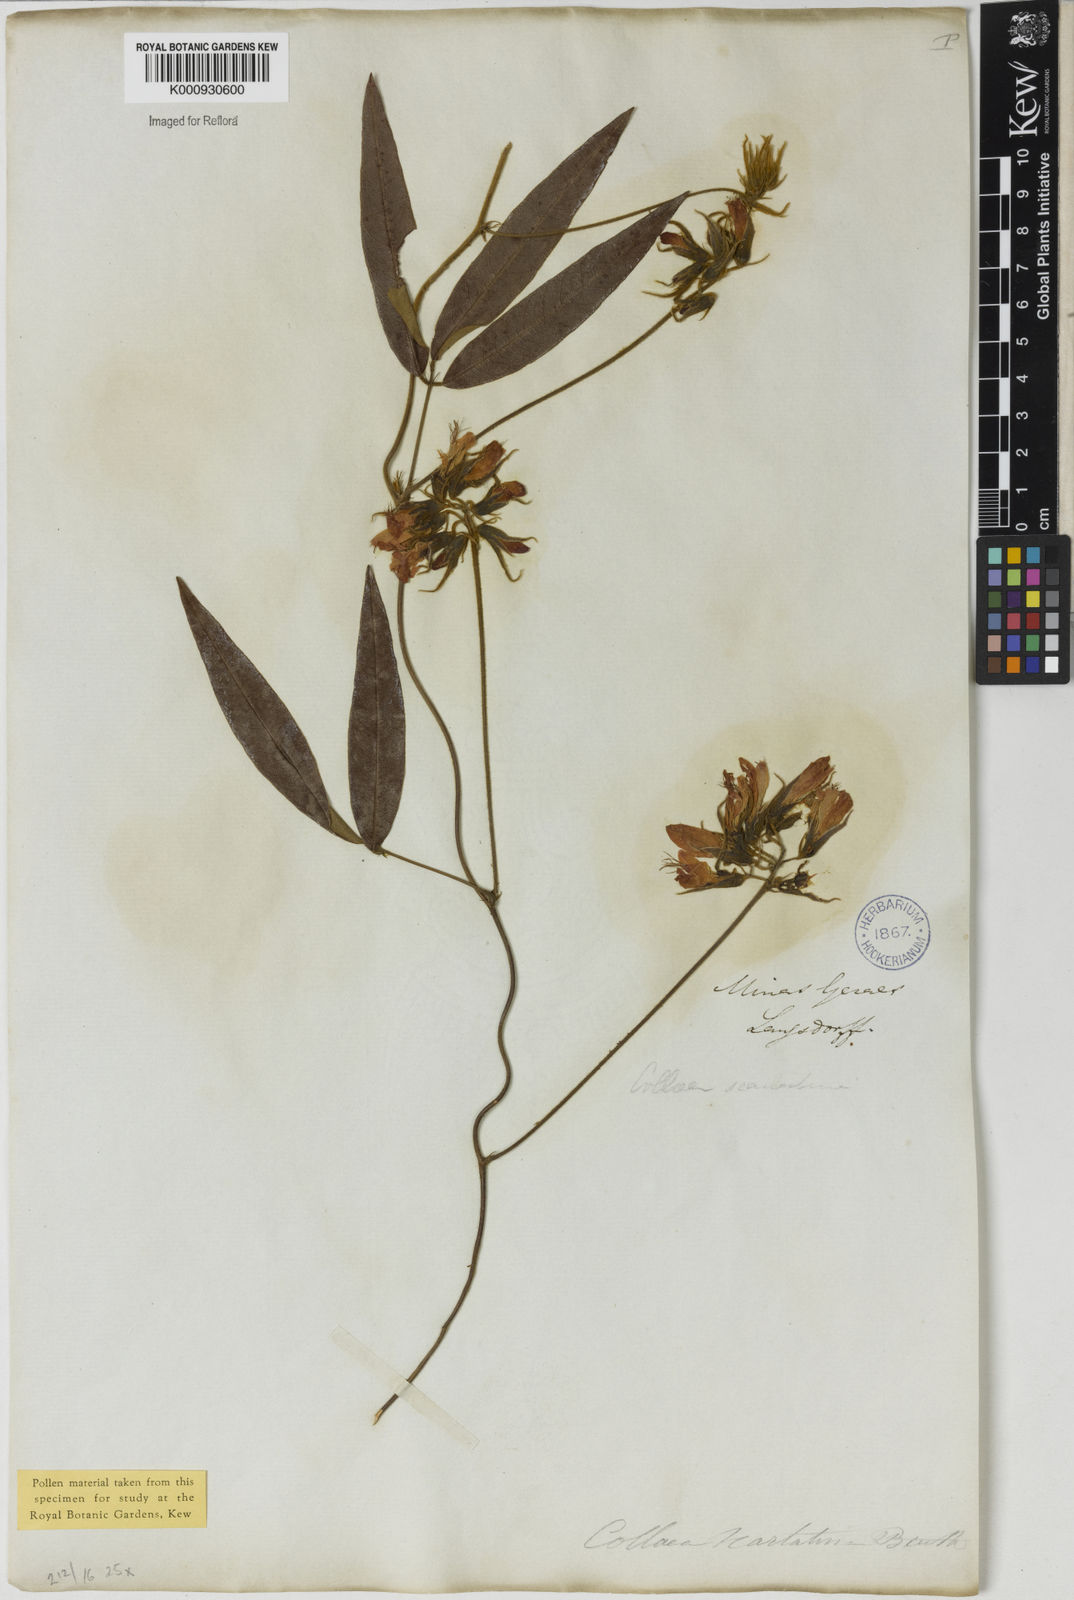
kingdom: Plantae
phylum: Tracheophyta
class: Magnoliopsida
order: Fabales
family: Fabaceae
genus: Betencourtia
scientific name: Betencourtia scarlatina
